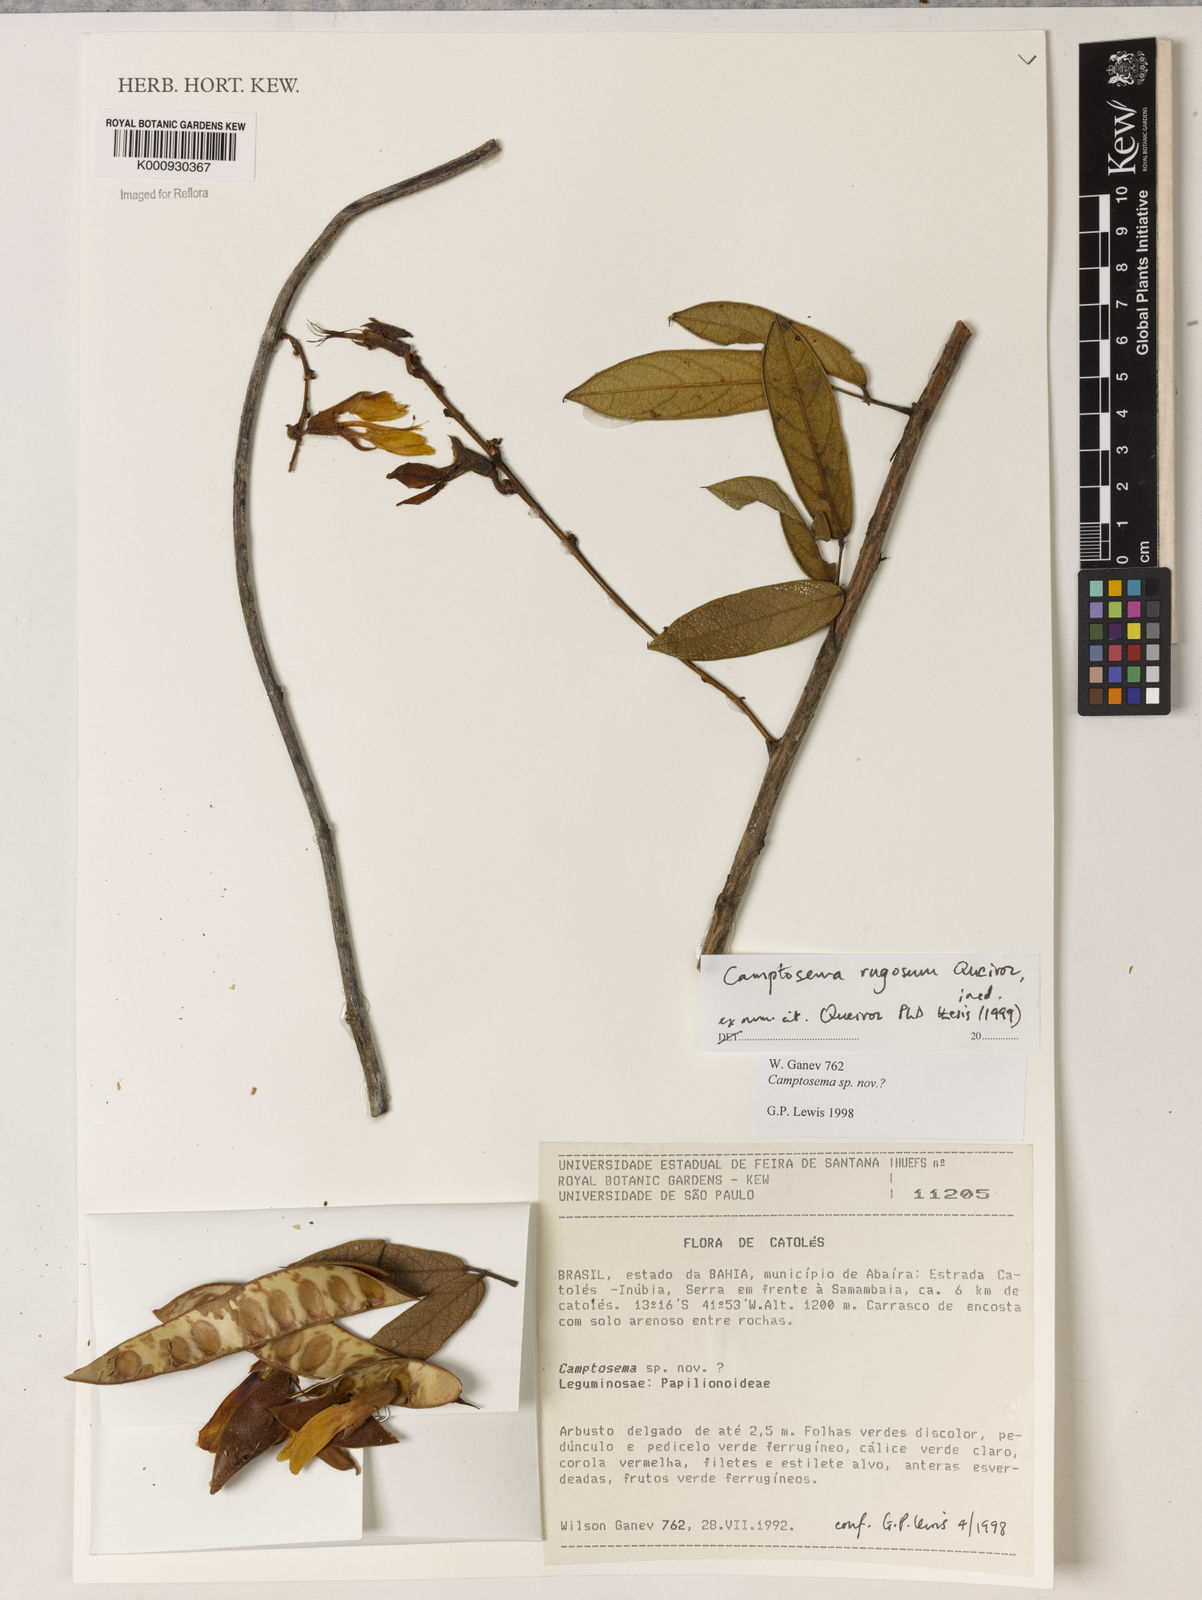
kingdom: Plantae
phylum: Tracheophyta
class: Magnoliopsida
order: Fabales
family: Fabaceae
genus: Camptosema
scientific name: Camptosema
